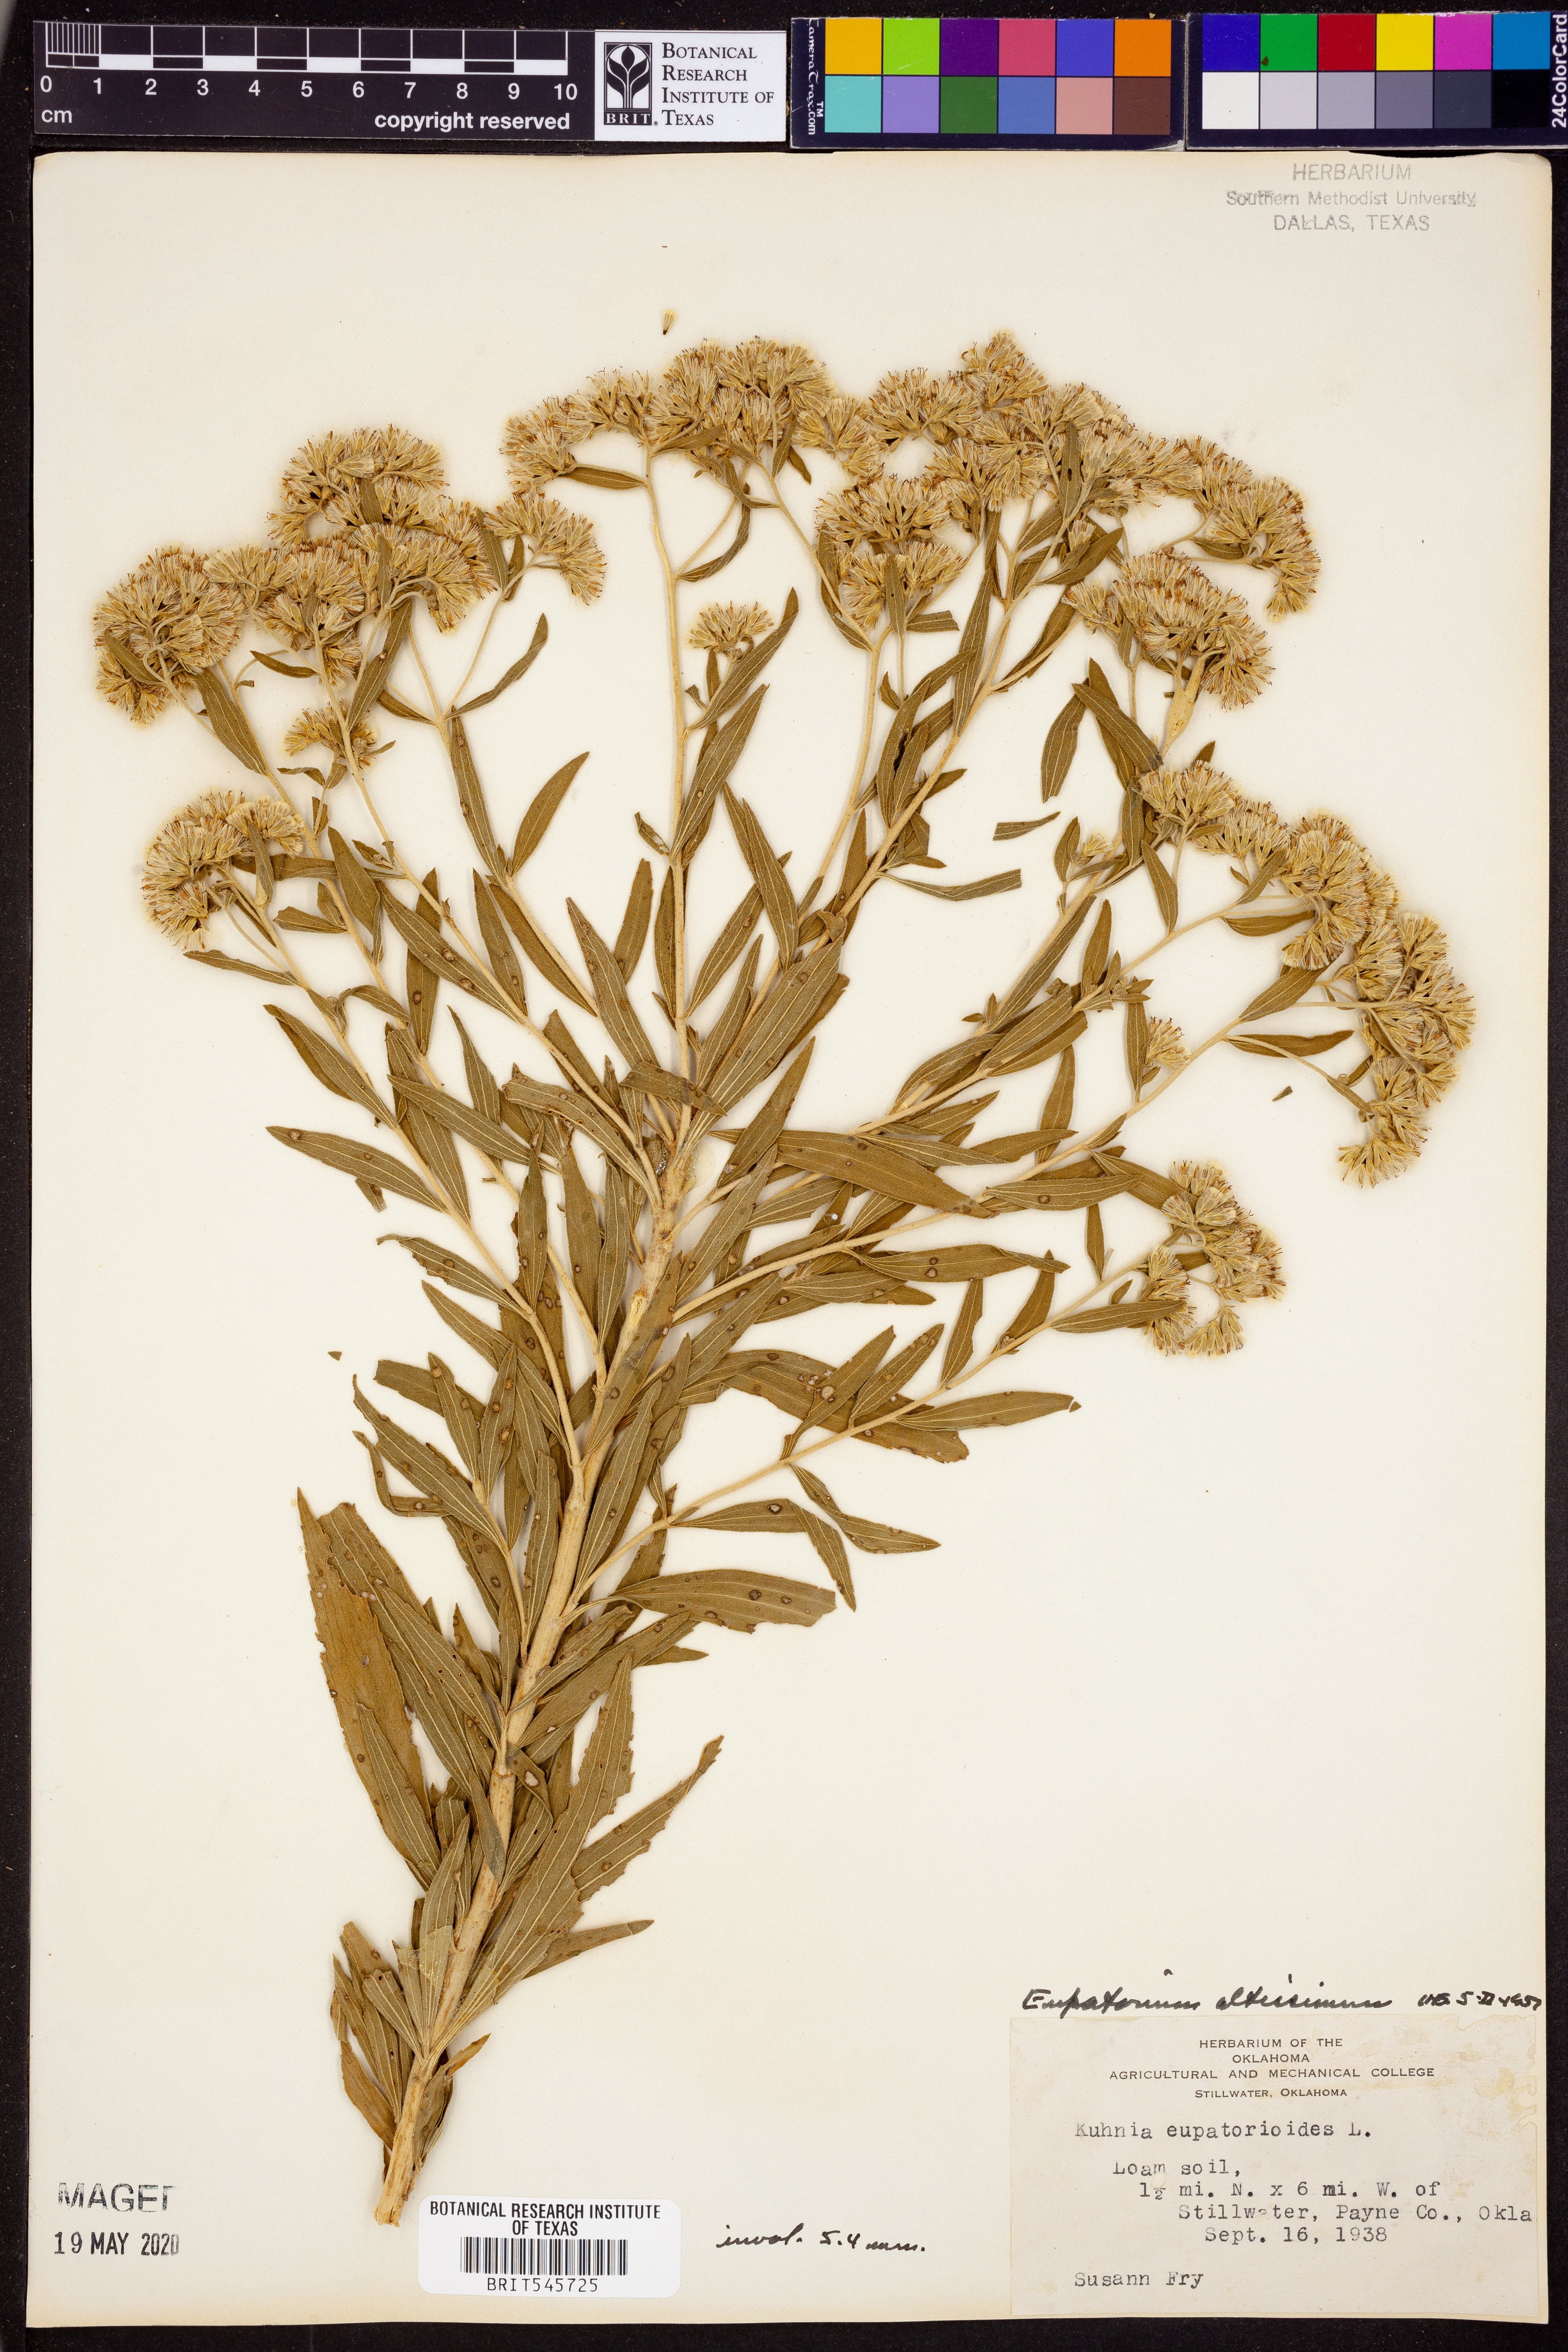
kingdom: Plantae
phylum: Tracheophyta
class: Magnoliopsida
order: Asterales
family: Asteraceae
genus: Eupatorium
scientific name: Eupatorium altissimum
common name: Tall thoroughwort
